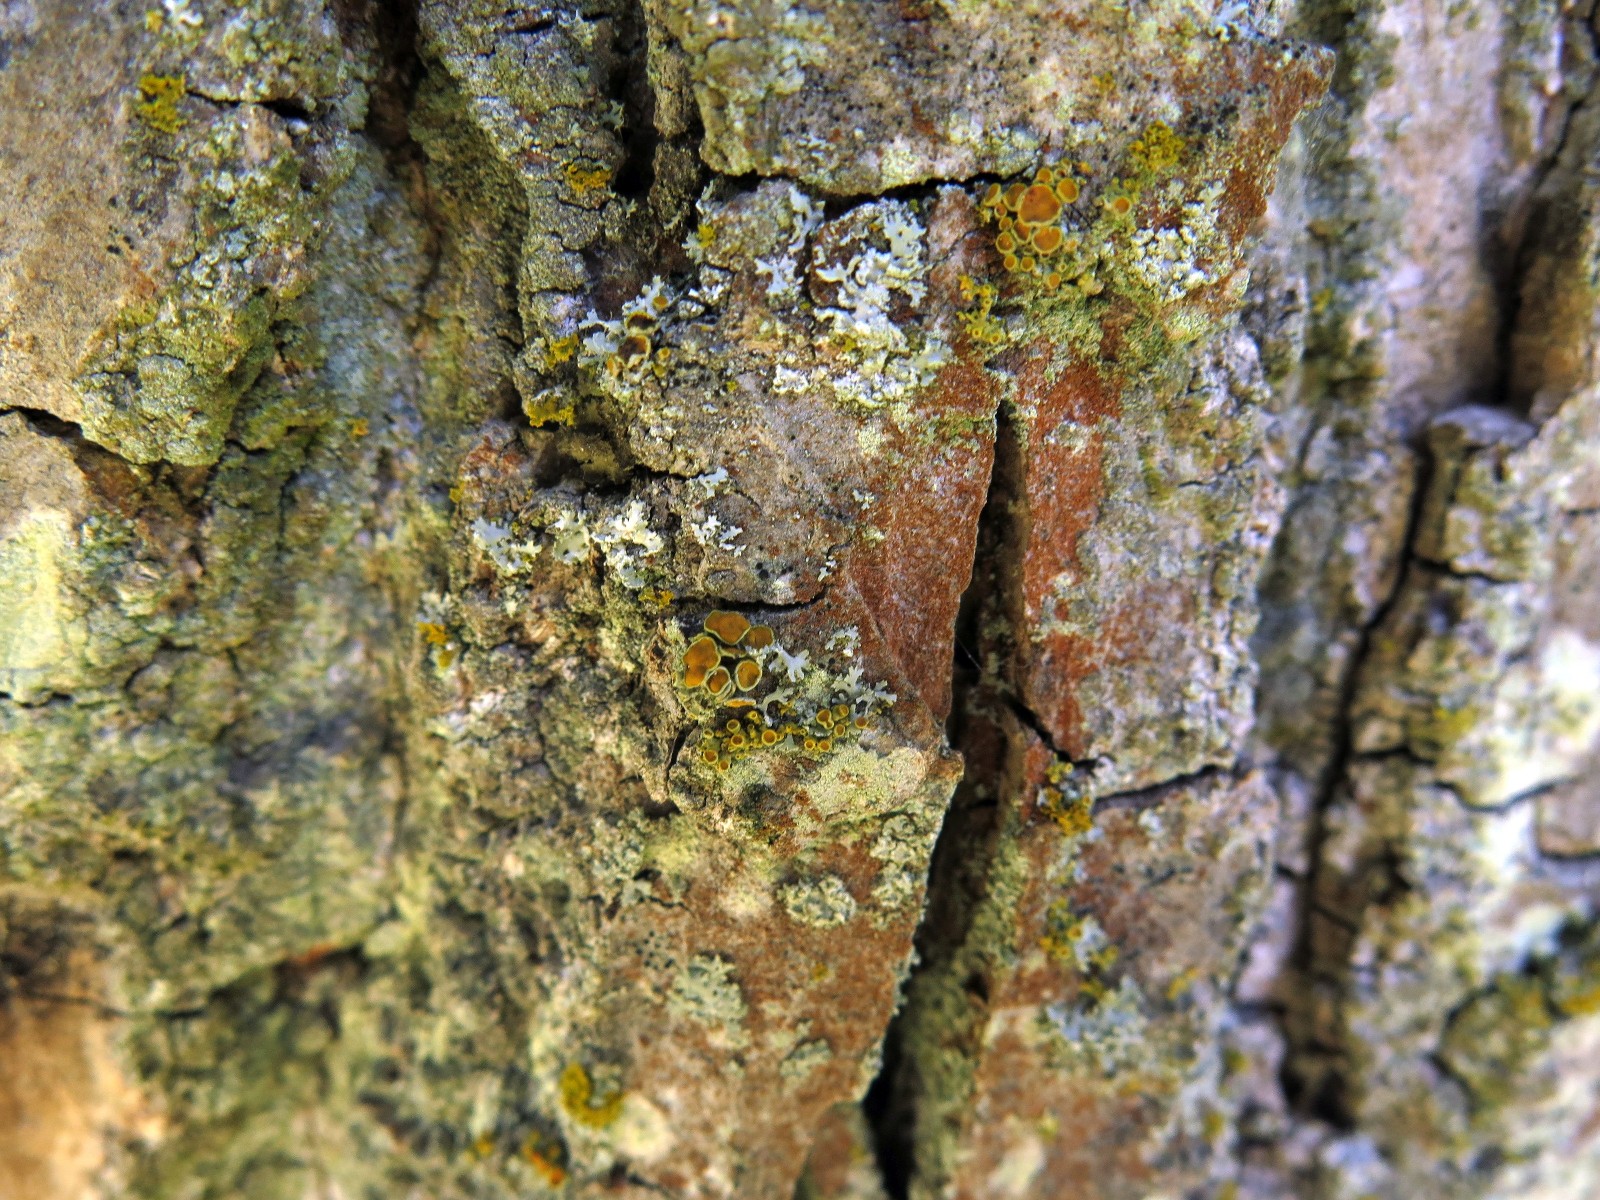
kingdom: Fungi
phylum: Ascomycota
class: Lecanoromycetes
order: Teloschistales
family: Teloschistaceae
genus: Polycauliona
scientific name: Polycauliona polycarpa
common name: mangefrugtet orangelav
